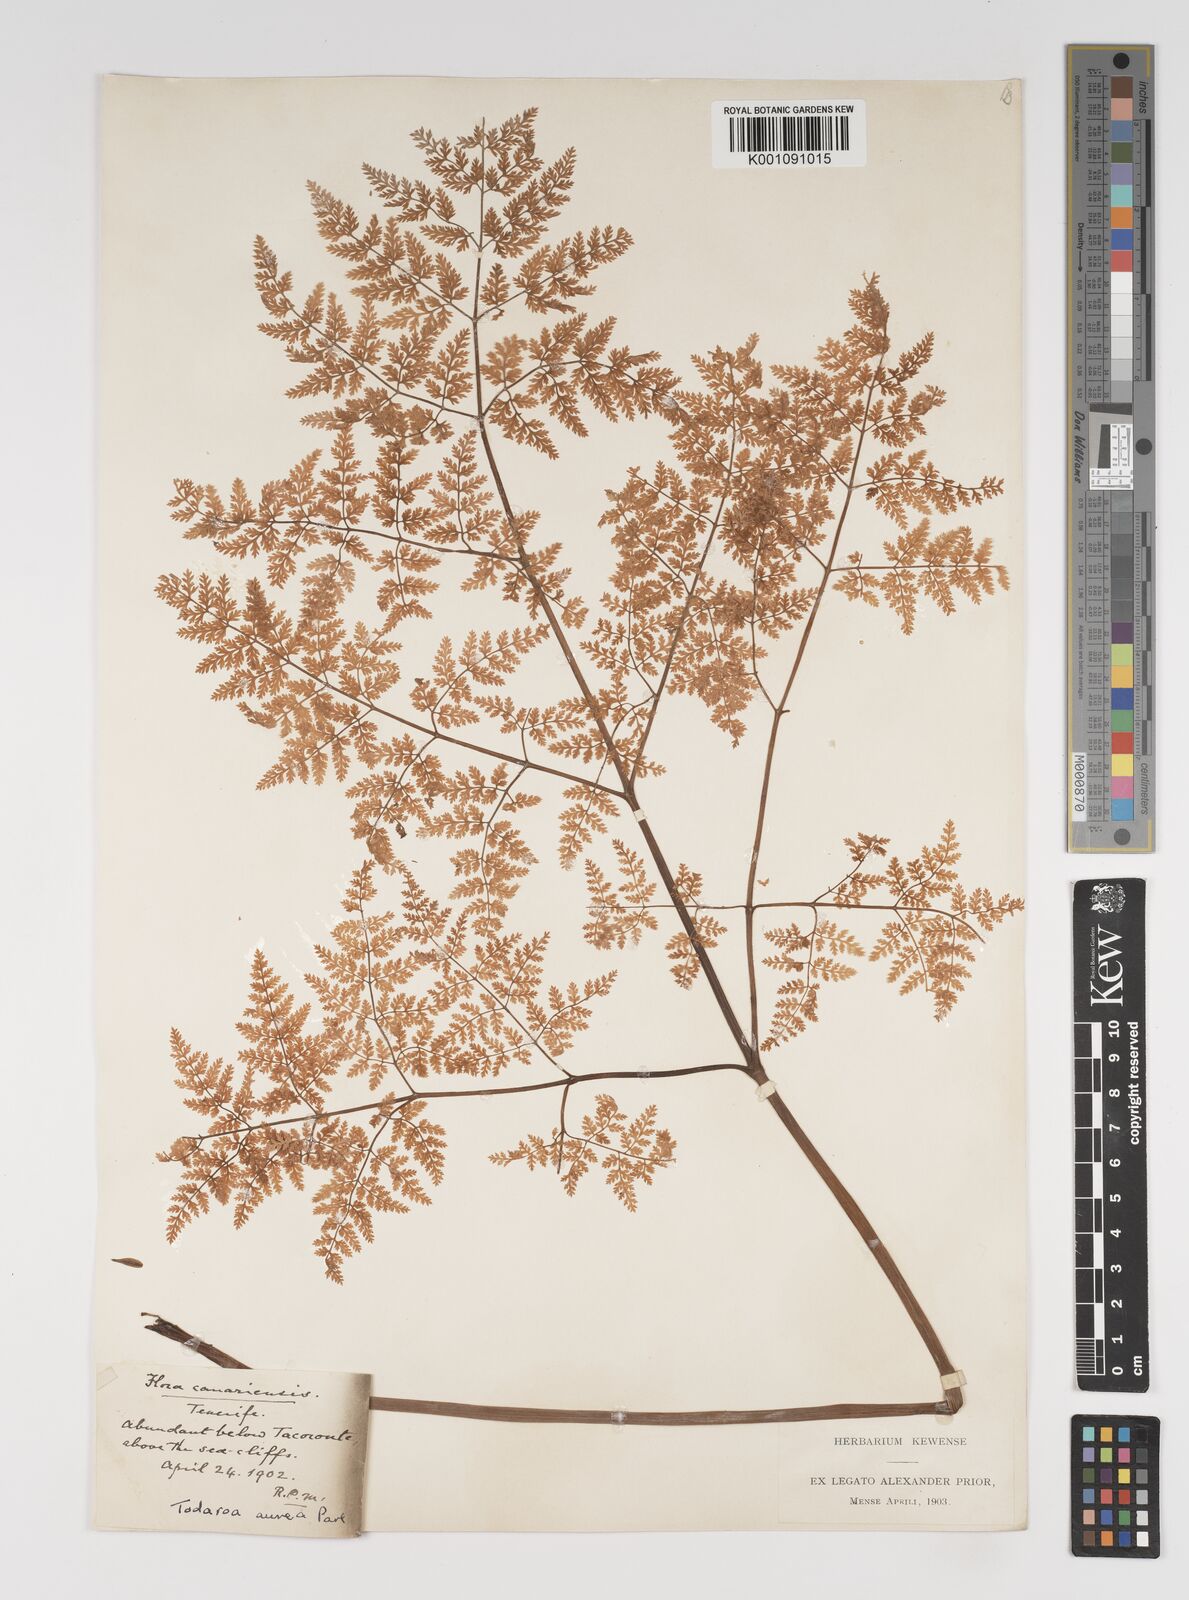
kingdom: Plantae
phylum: Tracheophyta
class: Magnoliopsida
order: Apiales
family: Apiaceae
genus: Todaroa
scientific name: Todaroa aurea
